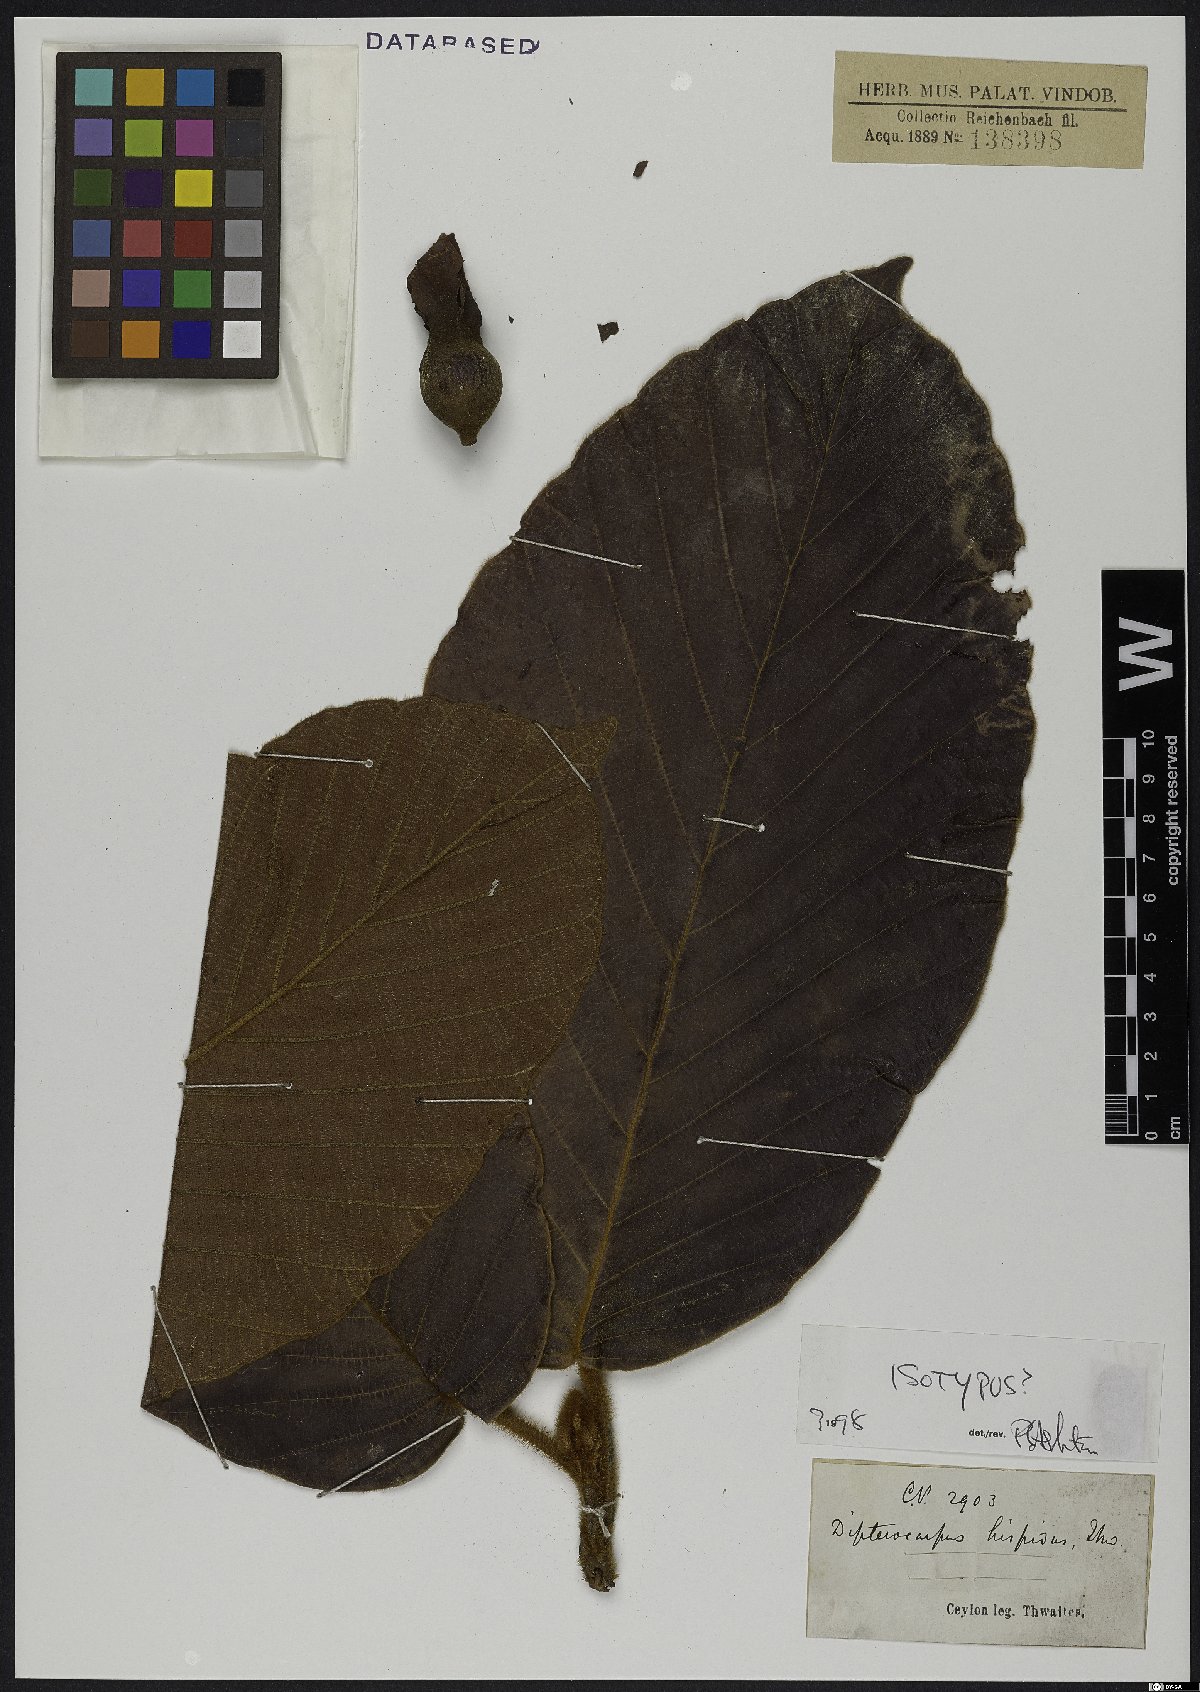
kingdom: Plantae
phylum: Tracheophyta
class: Magnoliopsida
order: Malvales
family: Dipterocarpaceae
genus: Dipterocarpus
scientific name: Dipterocarpus hispidus
